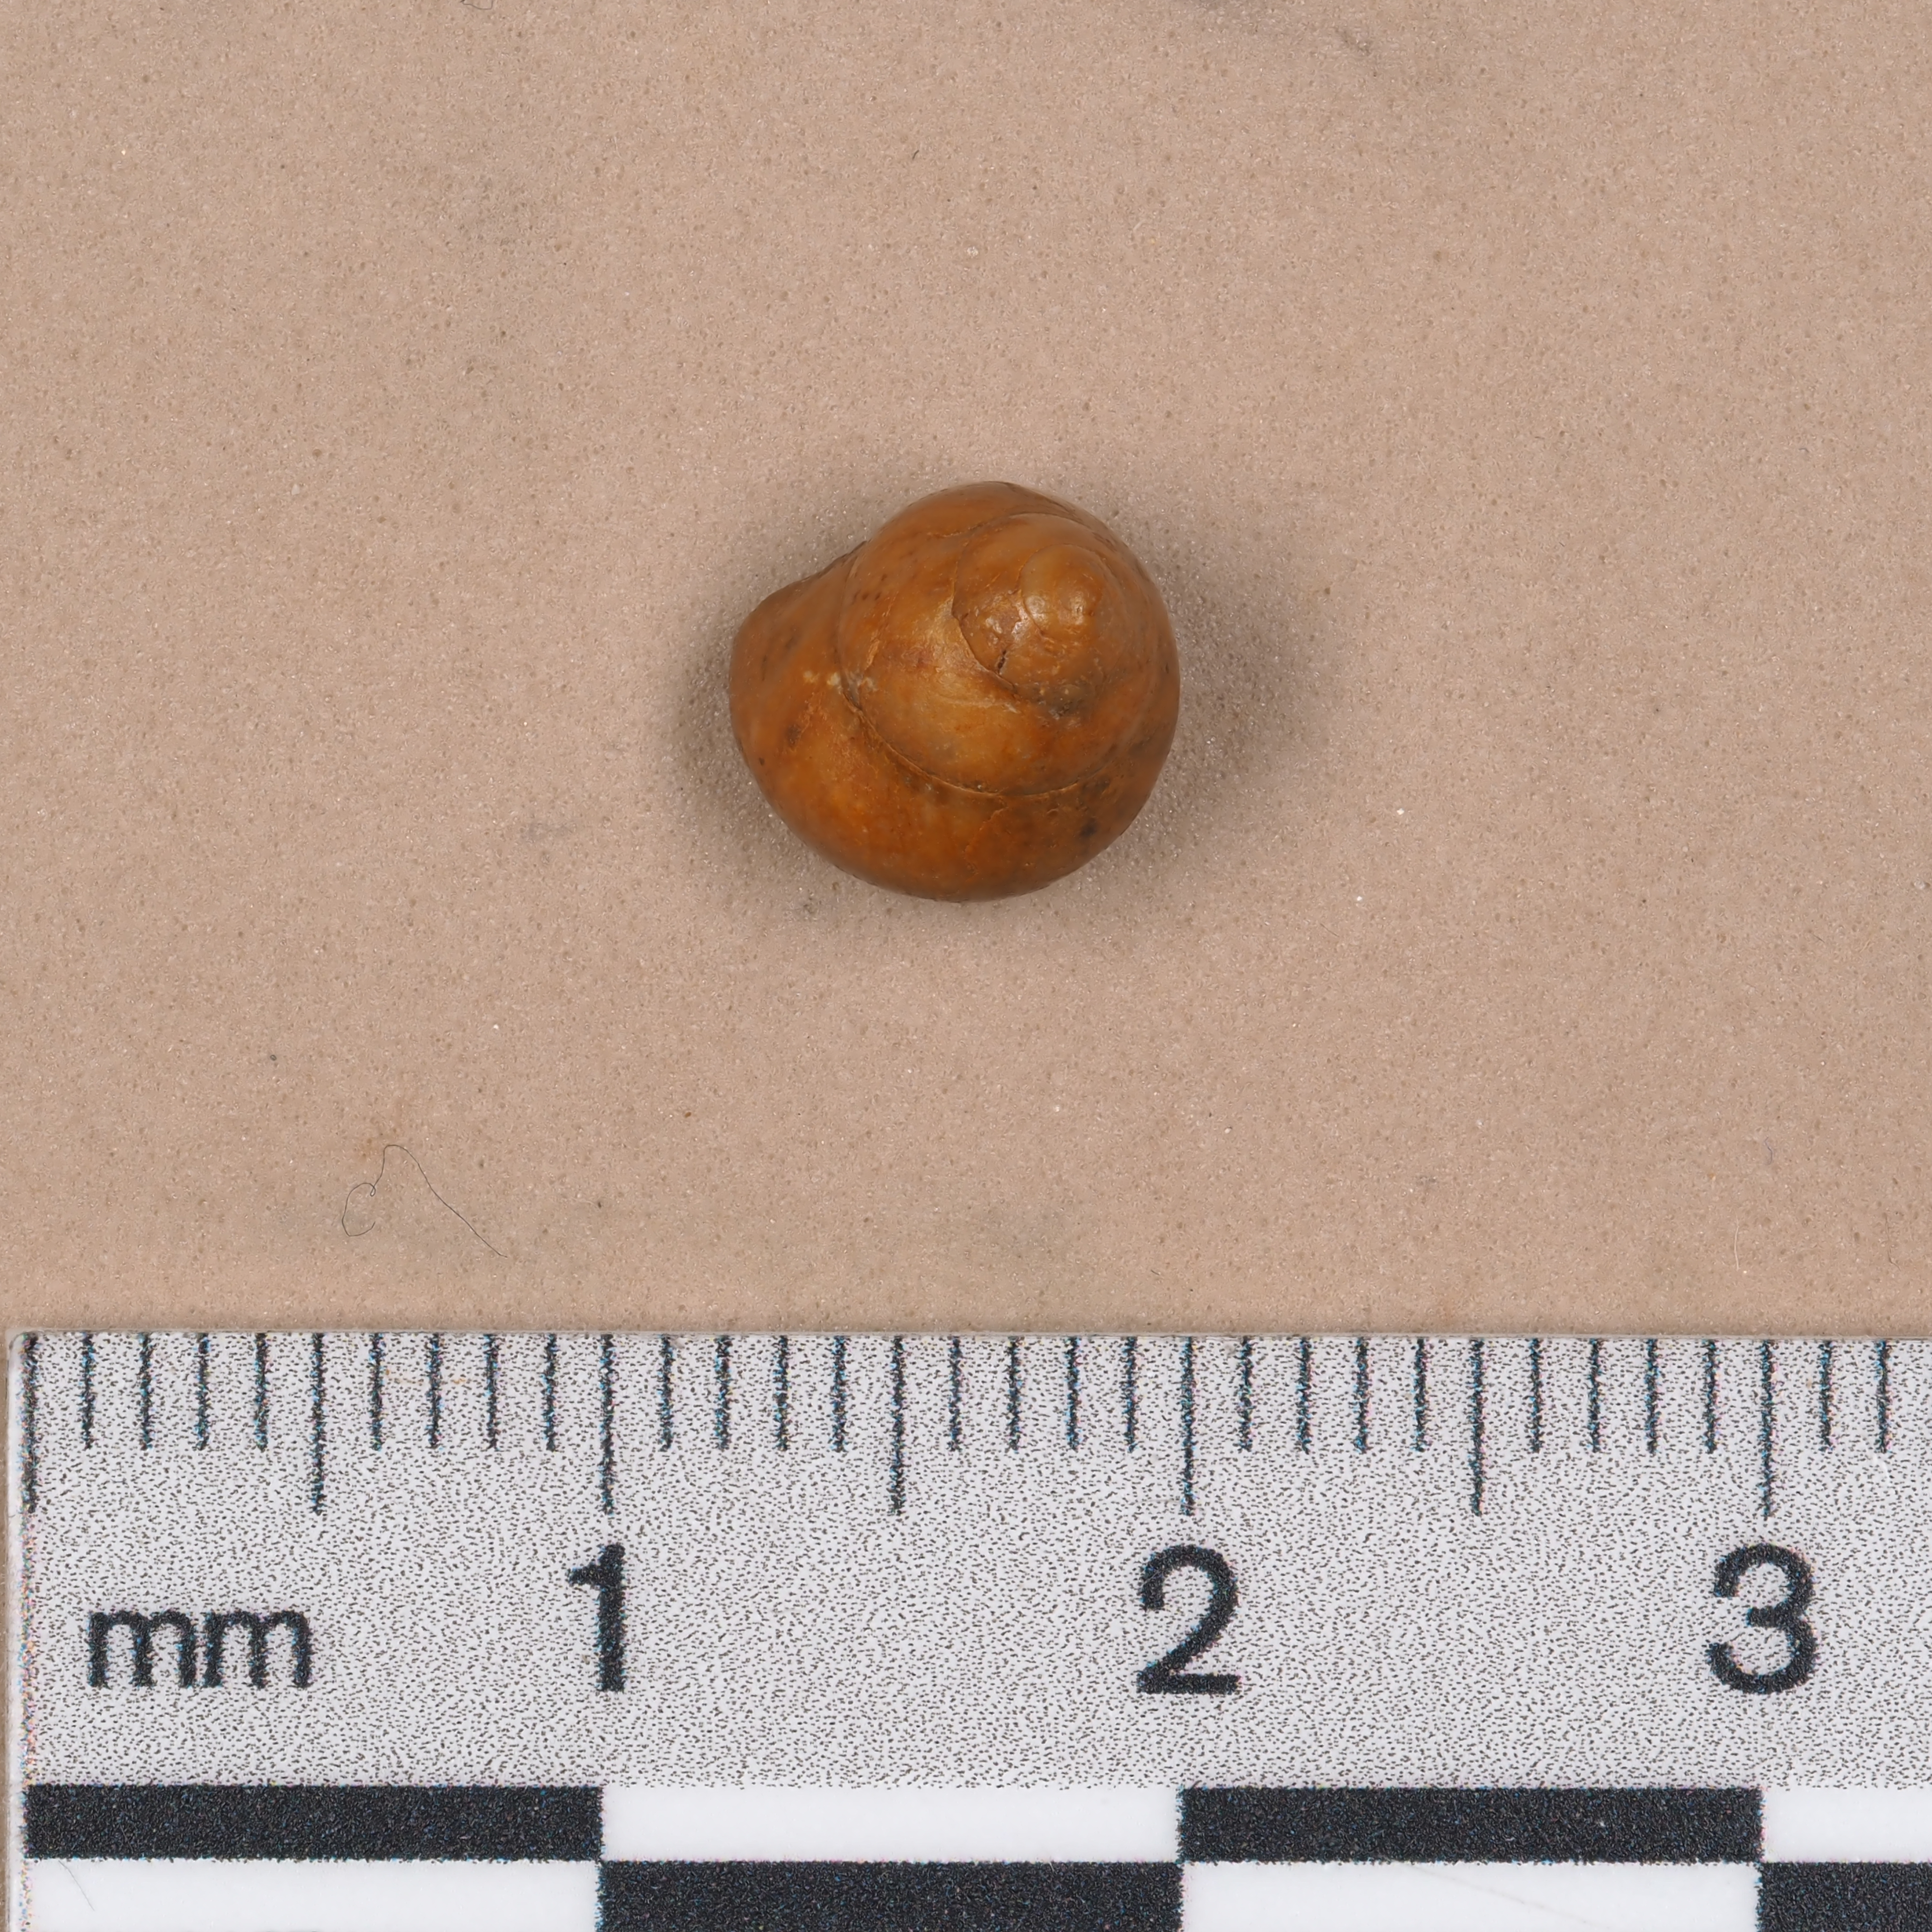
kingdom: Animalia
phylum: Mollusca
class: Gastropoda
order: Trochida
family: Ataphridae
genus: Ataphrus
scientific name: Ataphrus Trochus acmon
